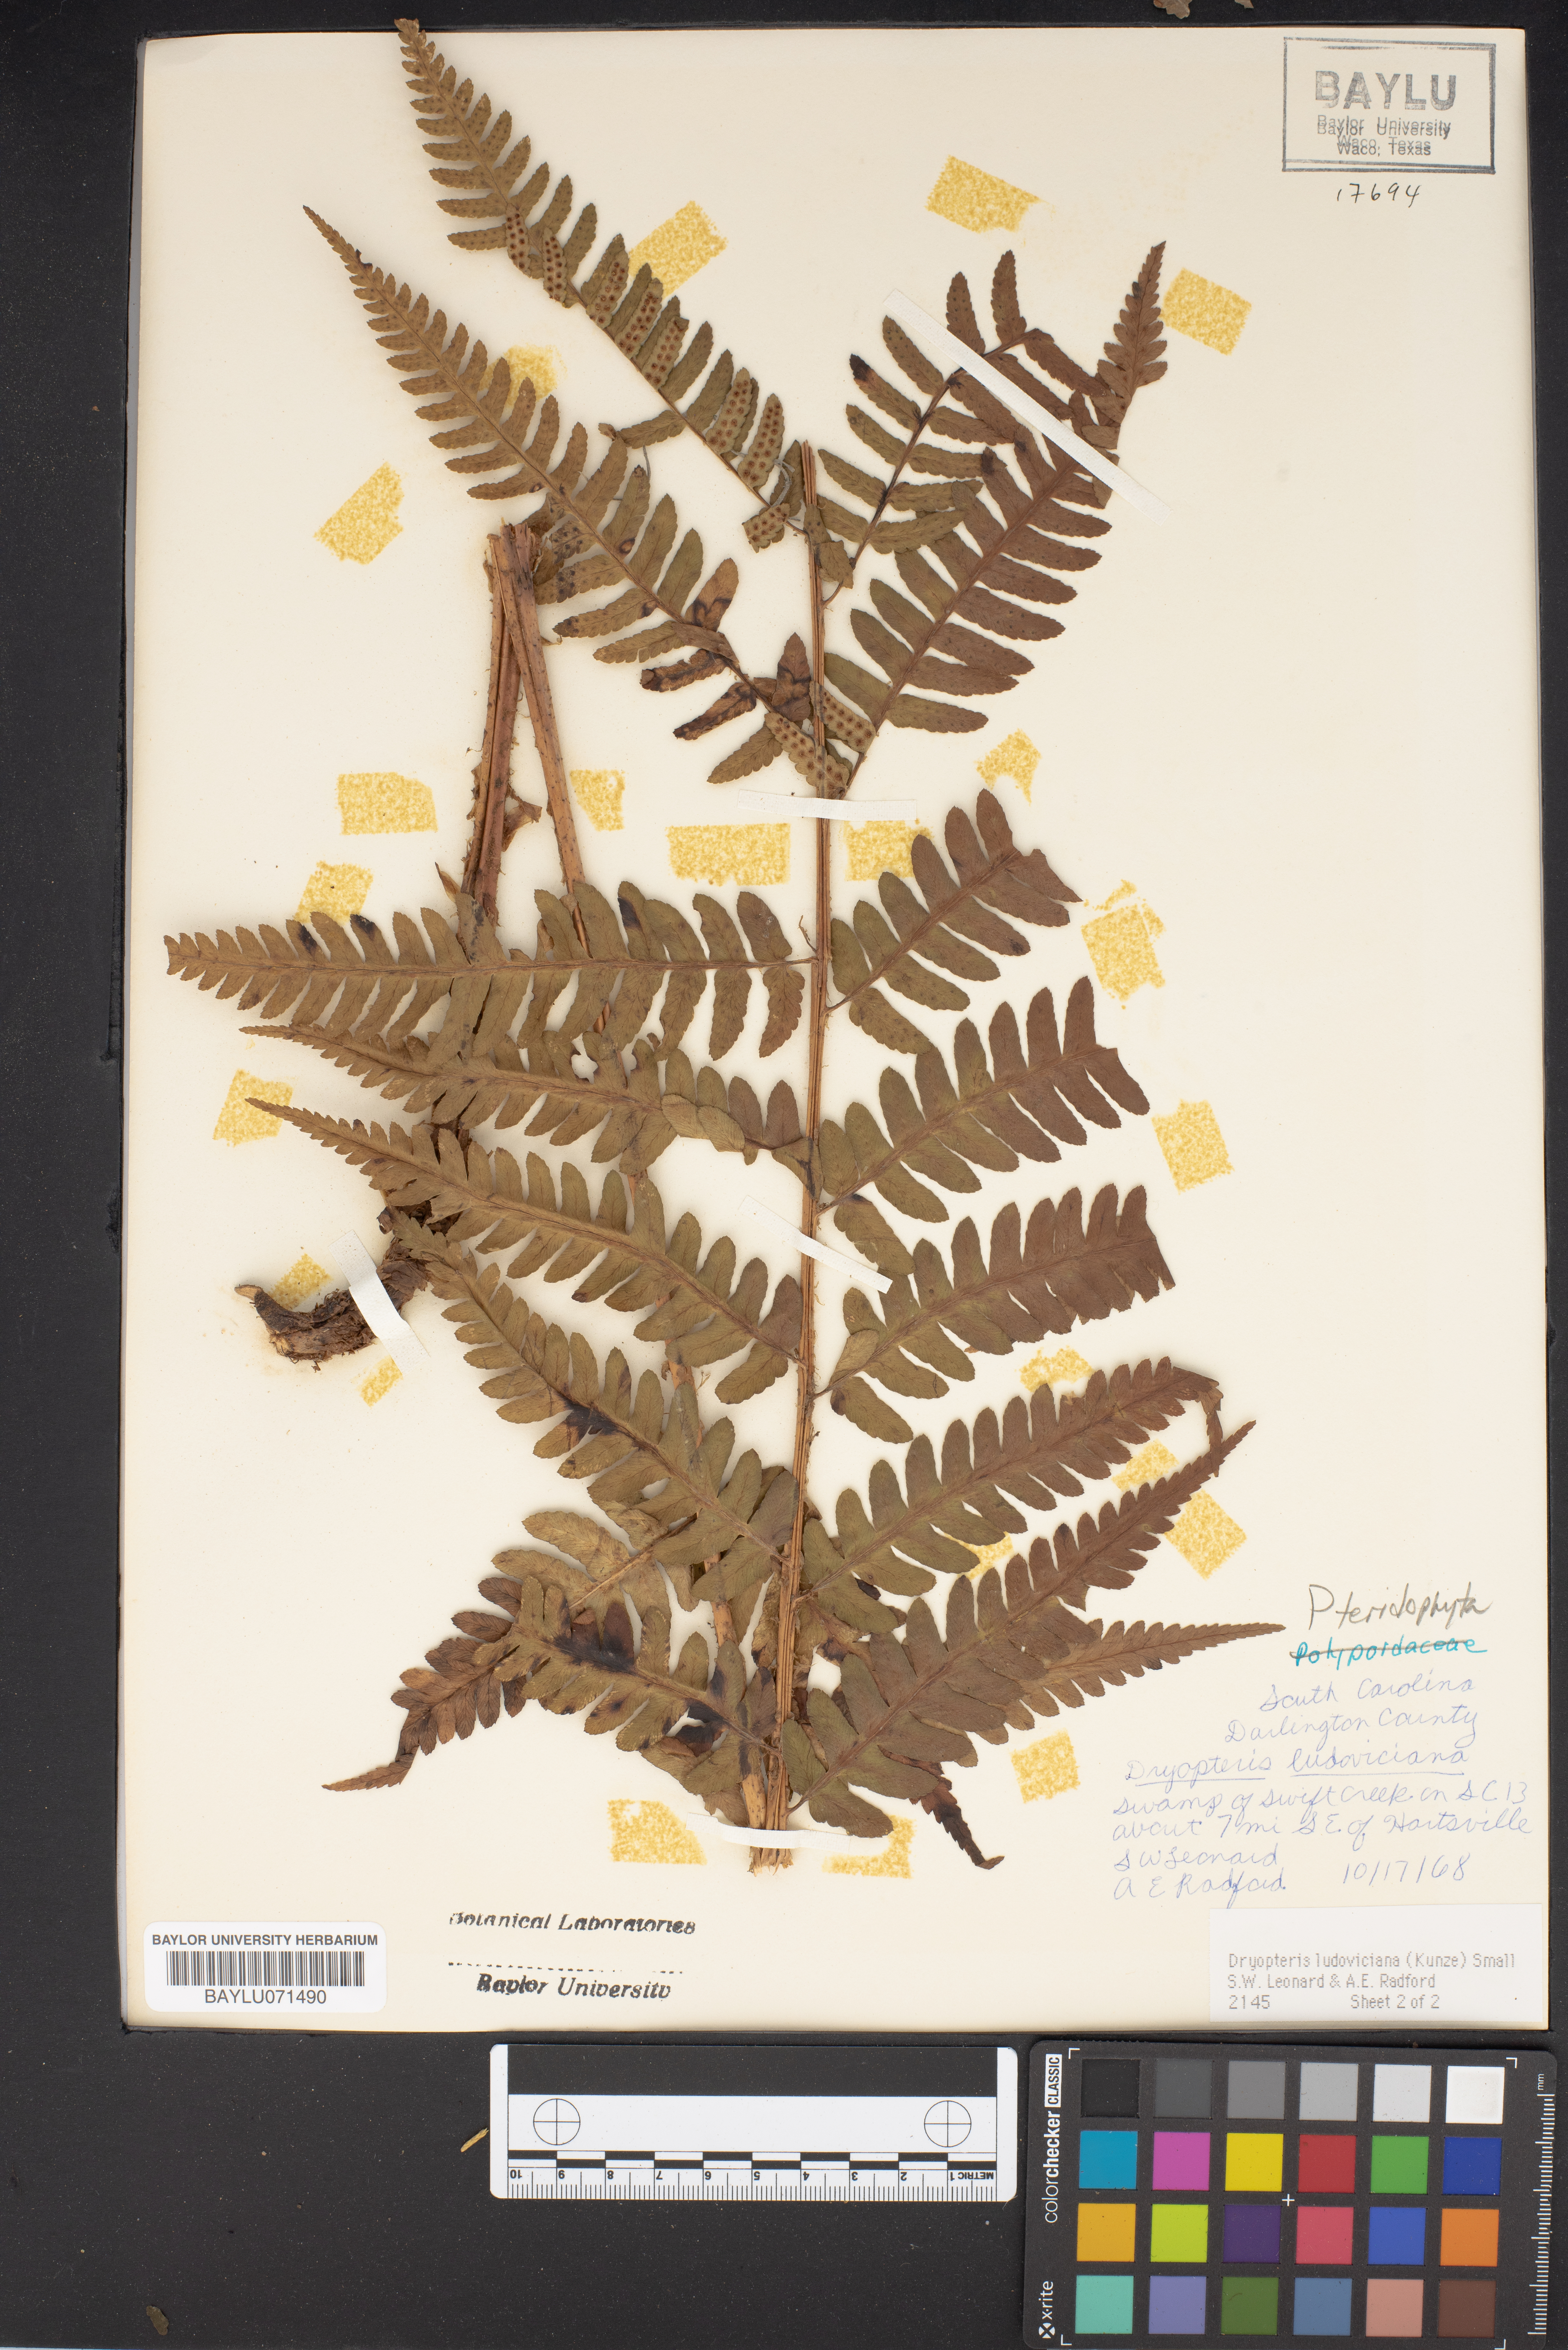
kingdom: Plantae
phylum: Tracheophyta
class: Polypodiopsida
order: Polypodiales
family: Dryopteridaceae
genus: Dryopteris
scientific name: Dryopteris ludoviciana
